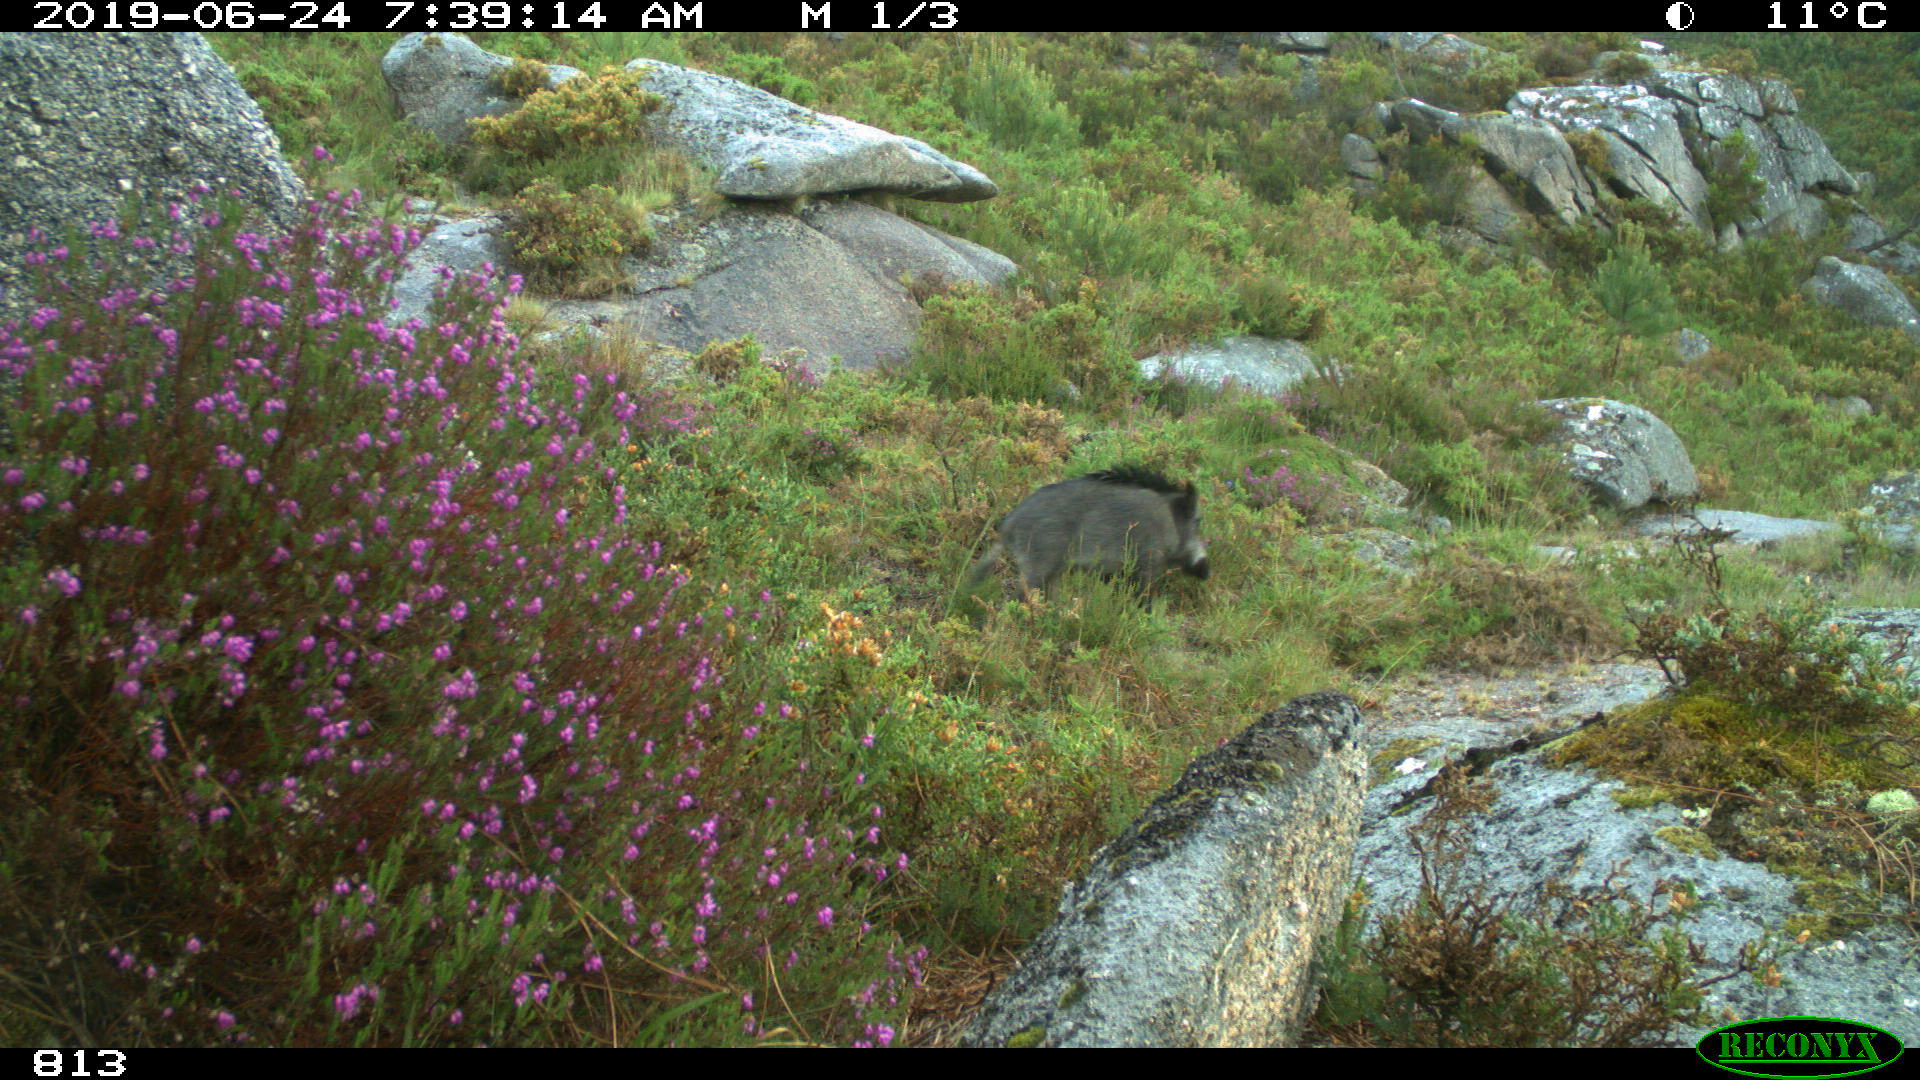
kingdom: Animalia
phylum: Chordata
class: Mammalia
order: Artiodactyla
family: Suidae
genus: Sus
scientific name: Sus scrofa
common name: Wild boar
